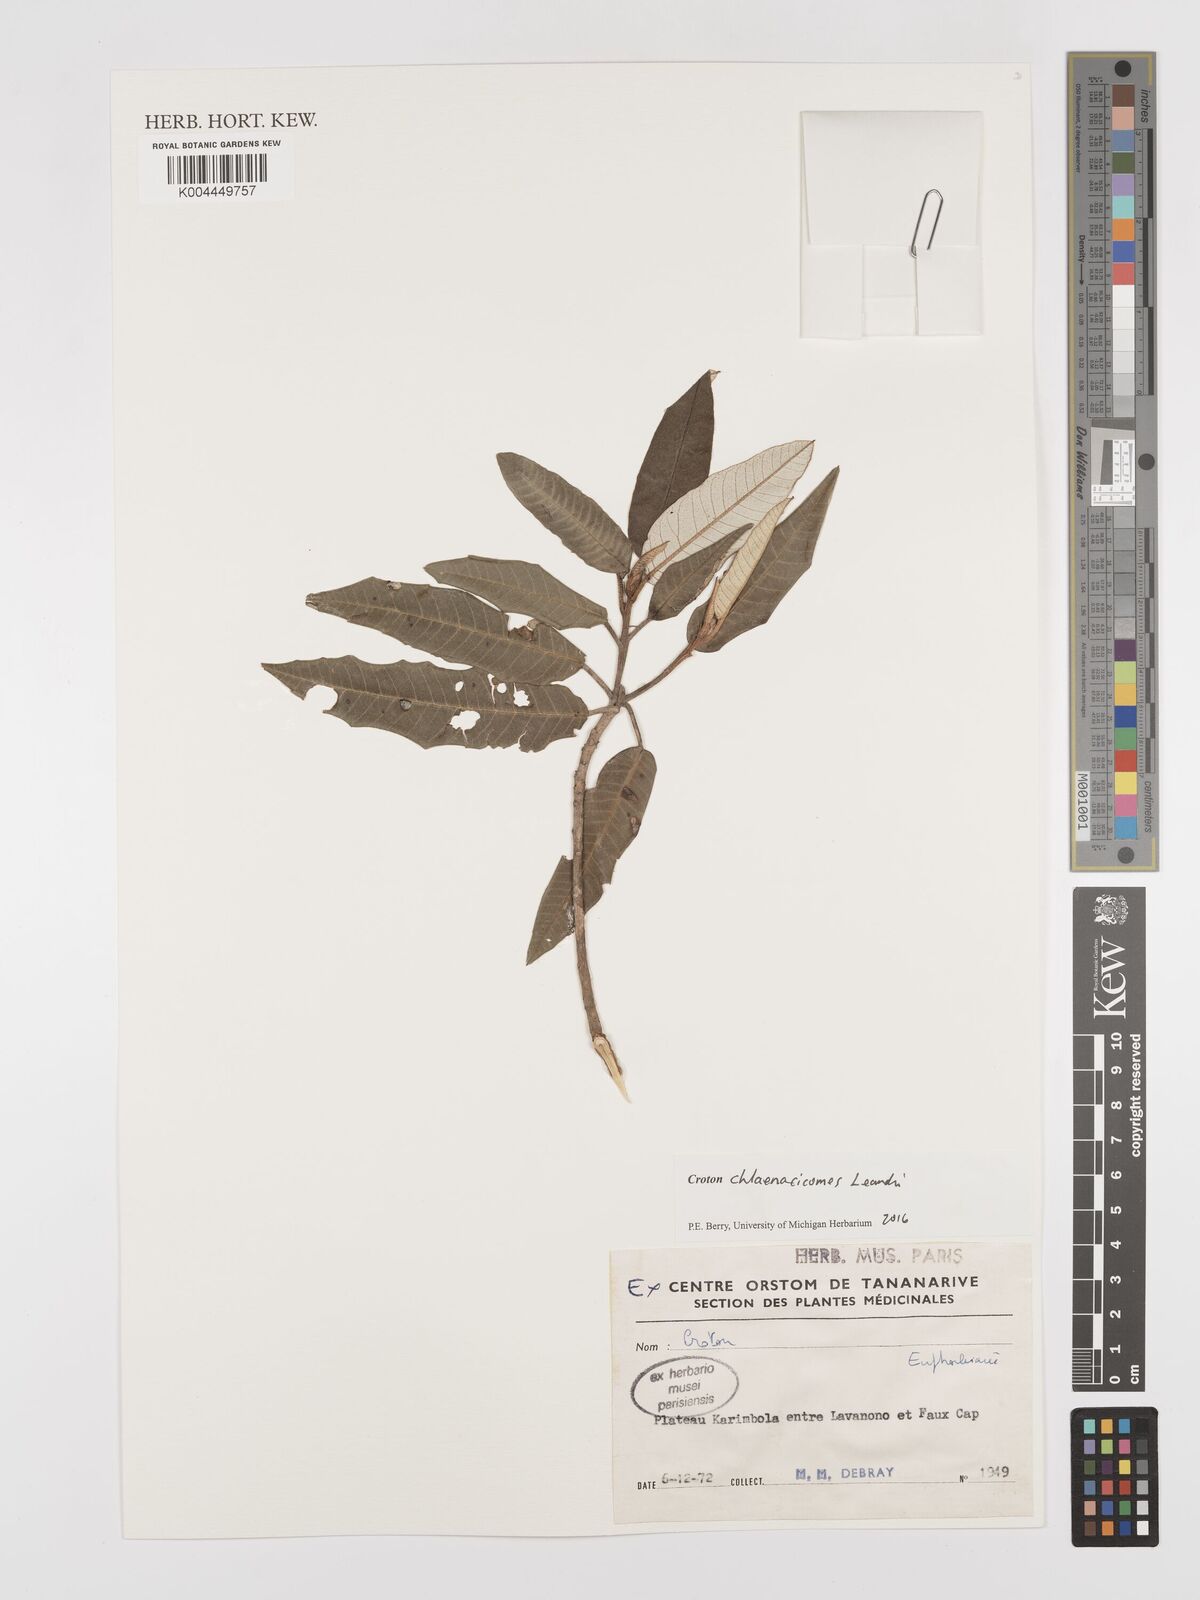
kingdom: Plantae
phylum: Tracheophyta
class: Magnoliopsida
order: Malpighiales
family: Euphorbiaceae
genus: Croton
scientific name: Croton chlaenacicomes
